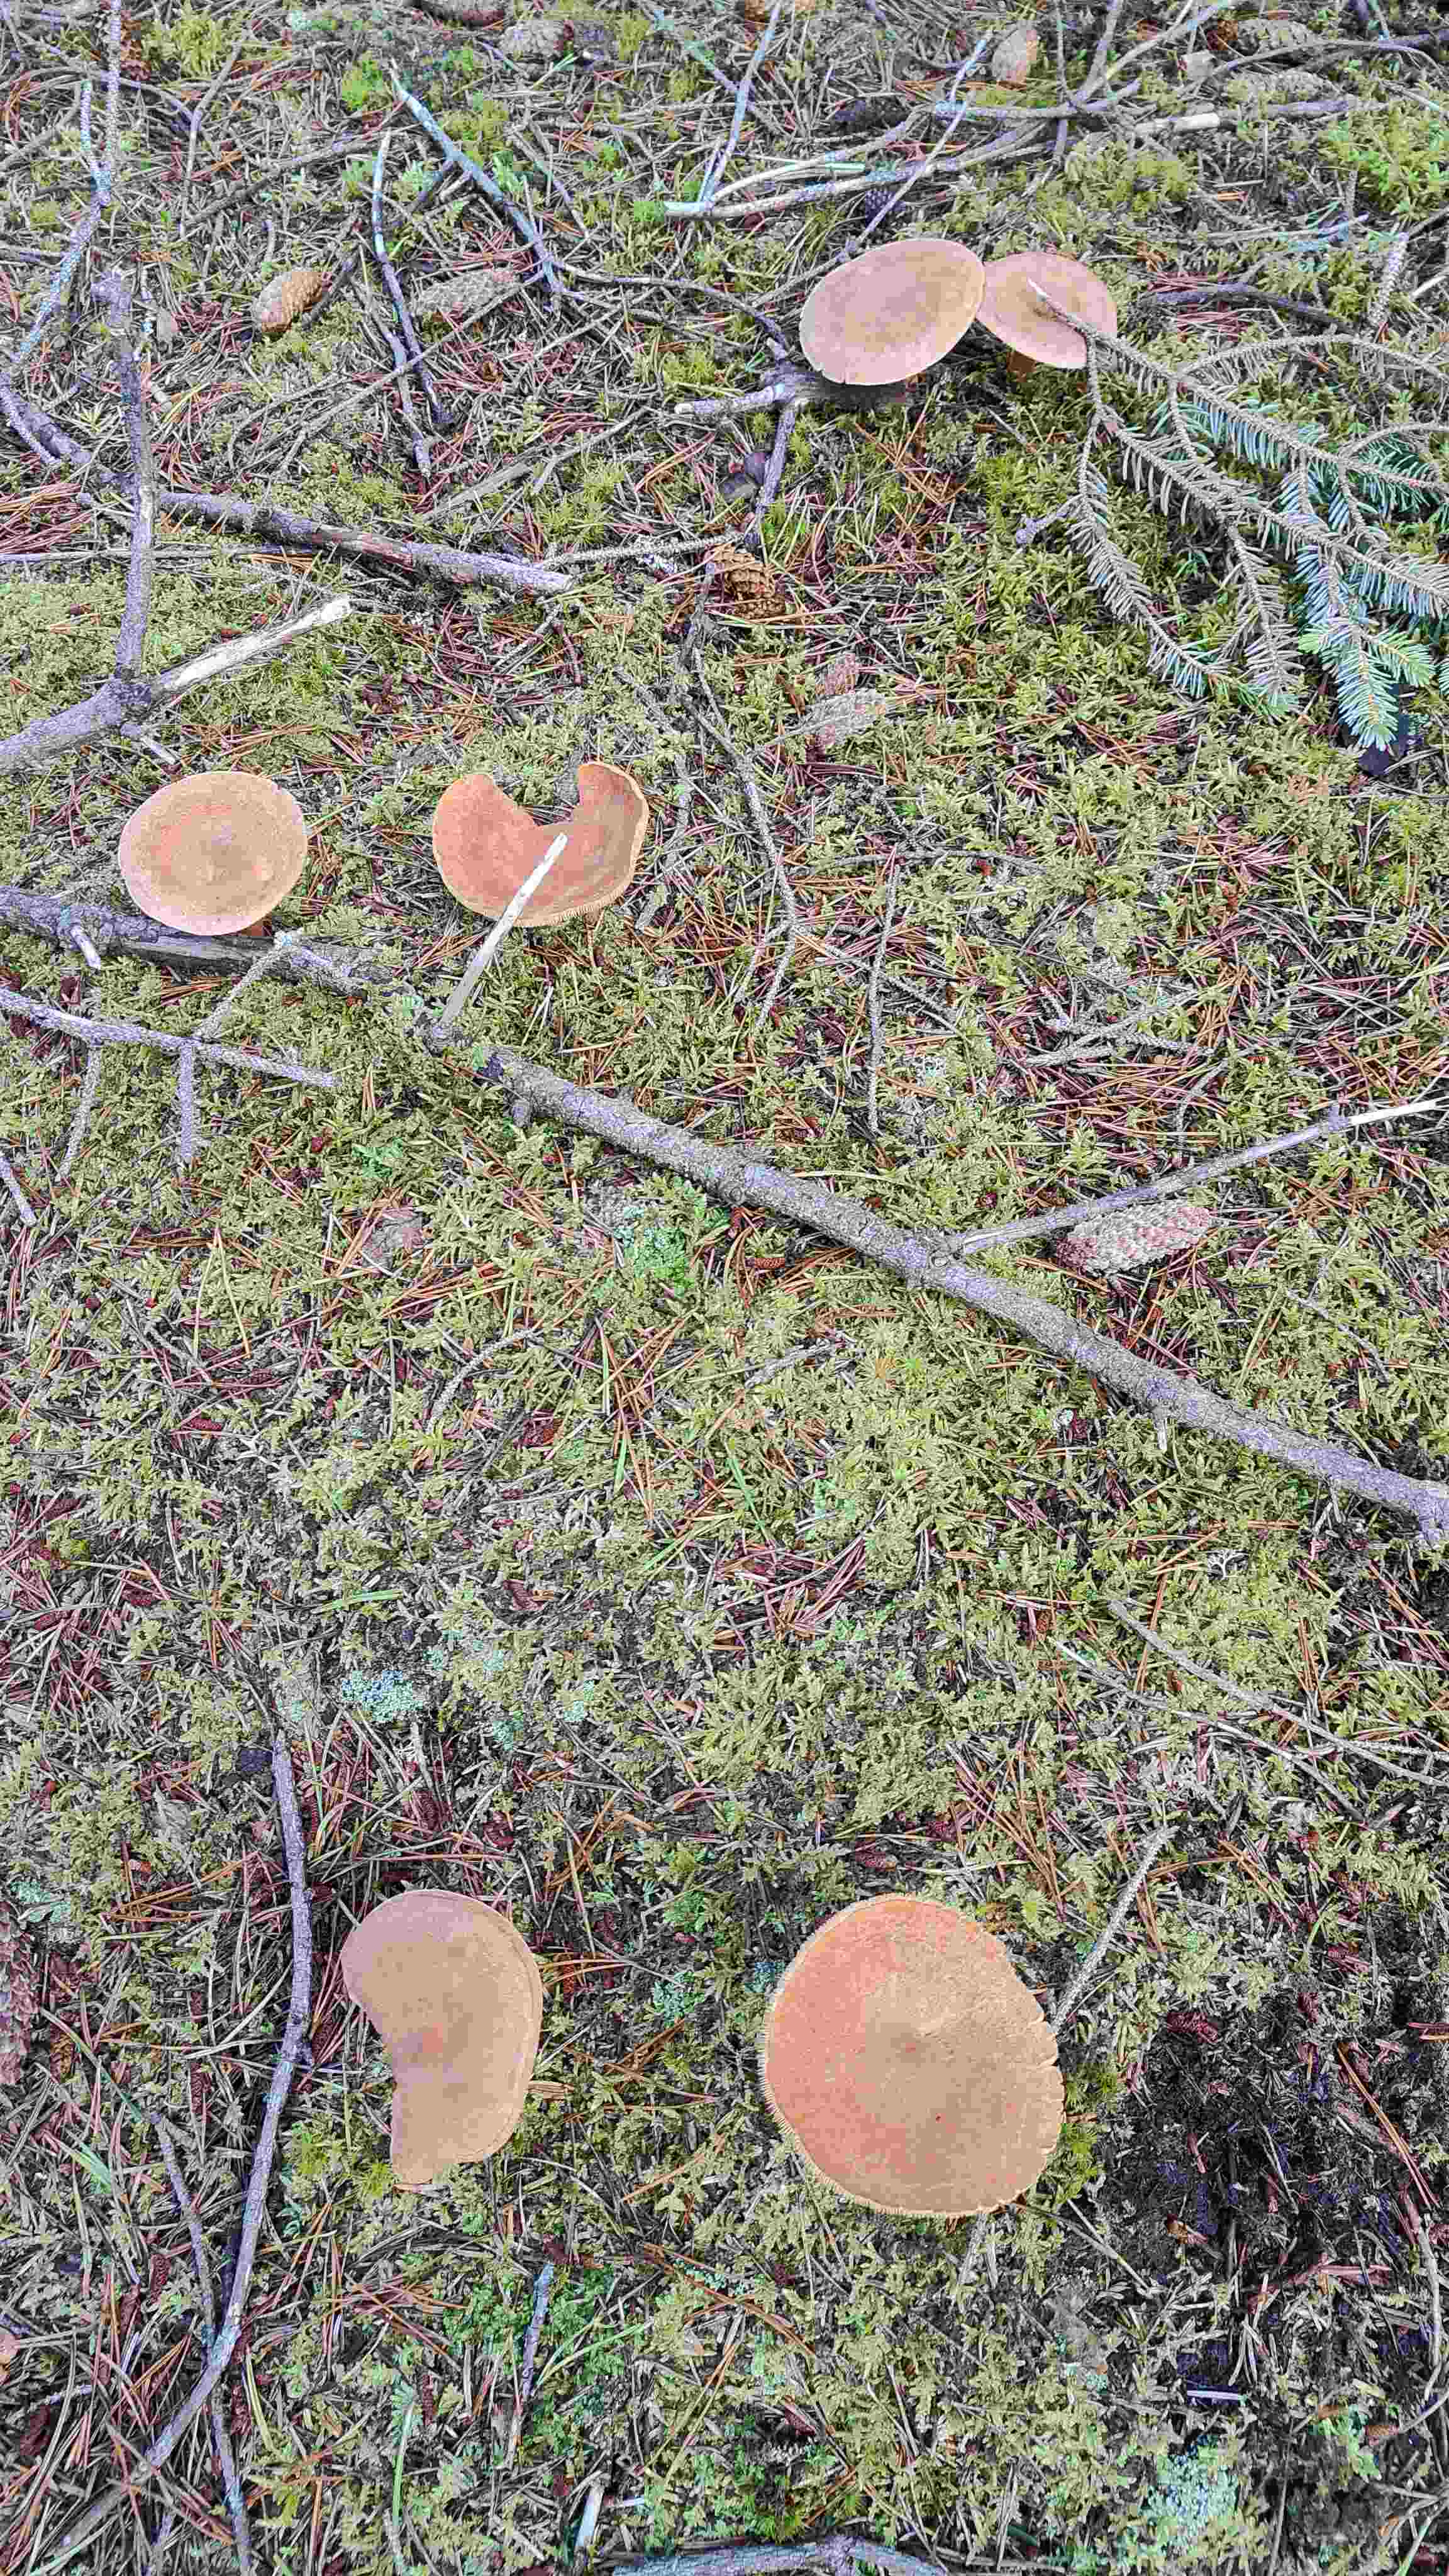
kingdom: Fungi
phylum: Basidiomycota
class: Agaricomycetes
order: Russulales
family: Russulaceae
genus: Lactarius
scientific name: Lactarius helvus
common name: mose-mælkehat
